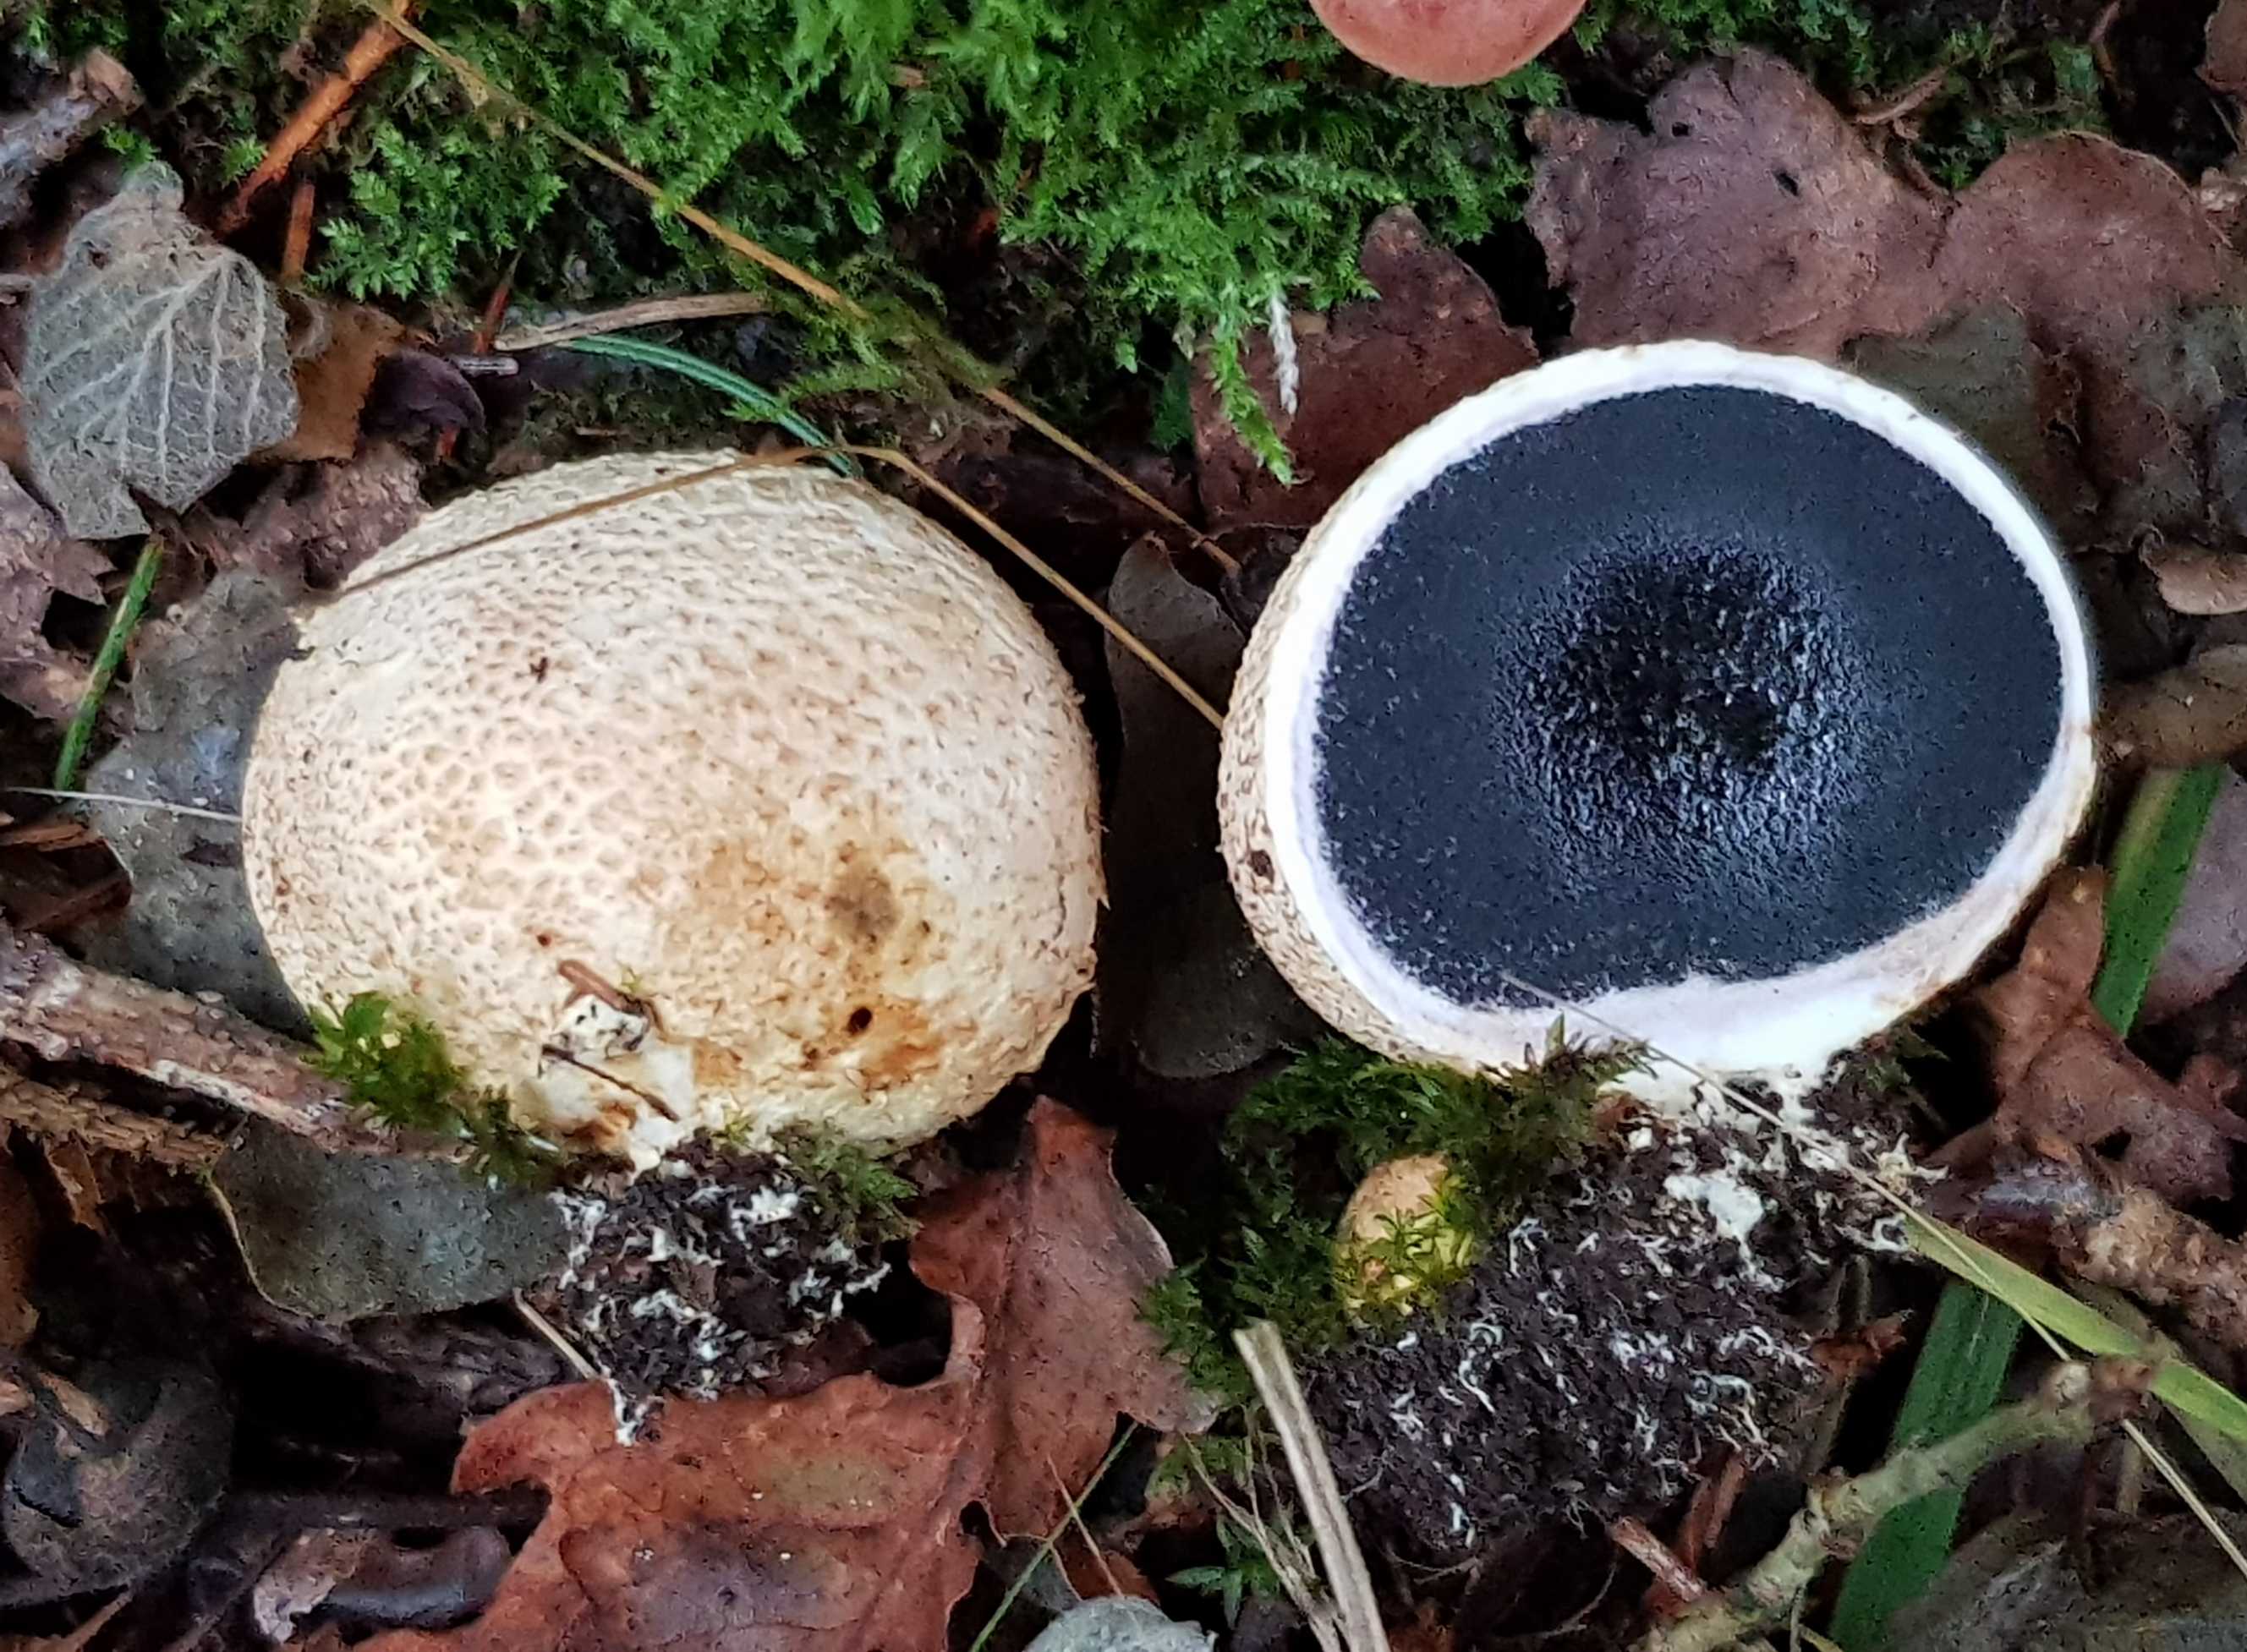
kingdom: Fungi
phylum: Basidiomycota
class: Agaricomycetes
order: Boletales
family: Sclerodermataceae
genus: Scleroderma
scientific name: Scleroderma citrinum
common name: almindelig bruskbold
